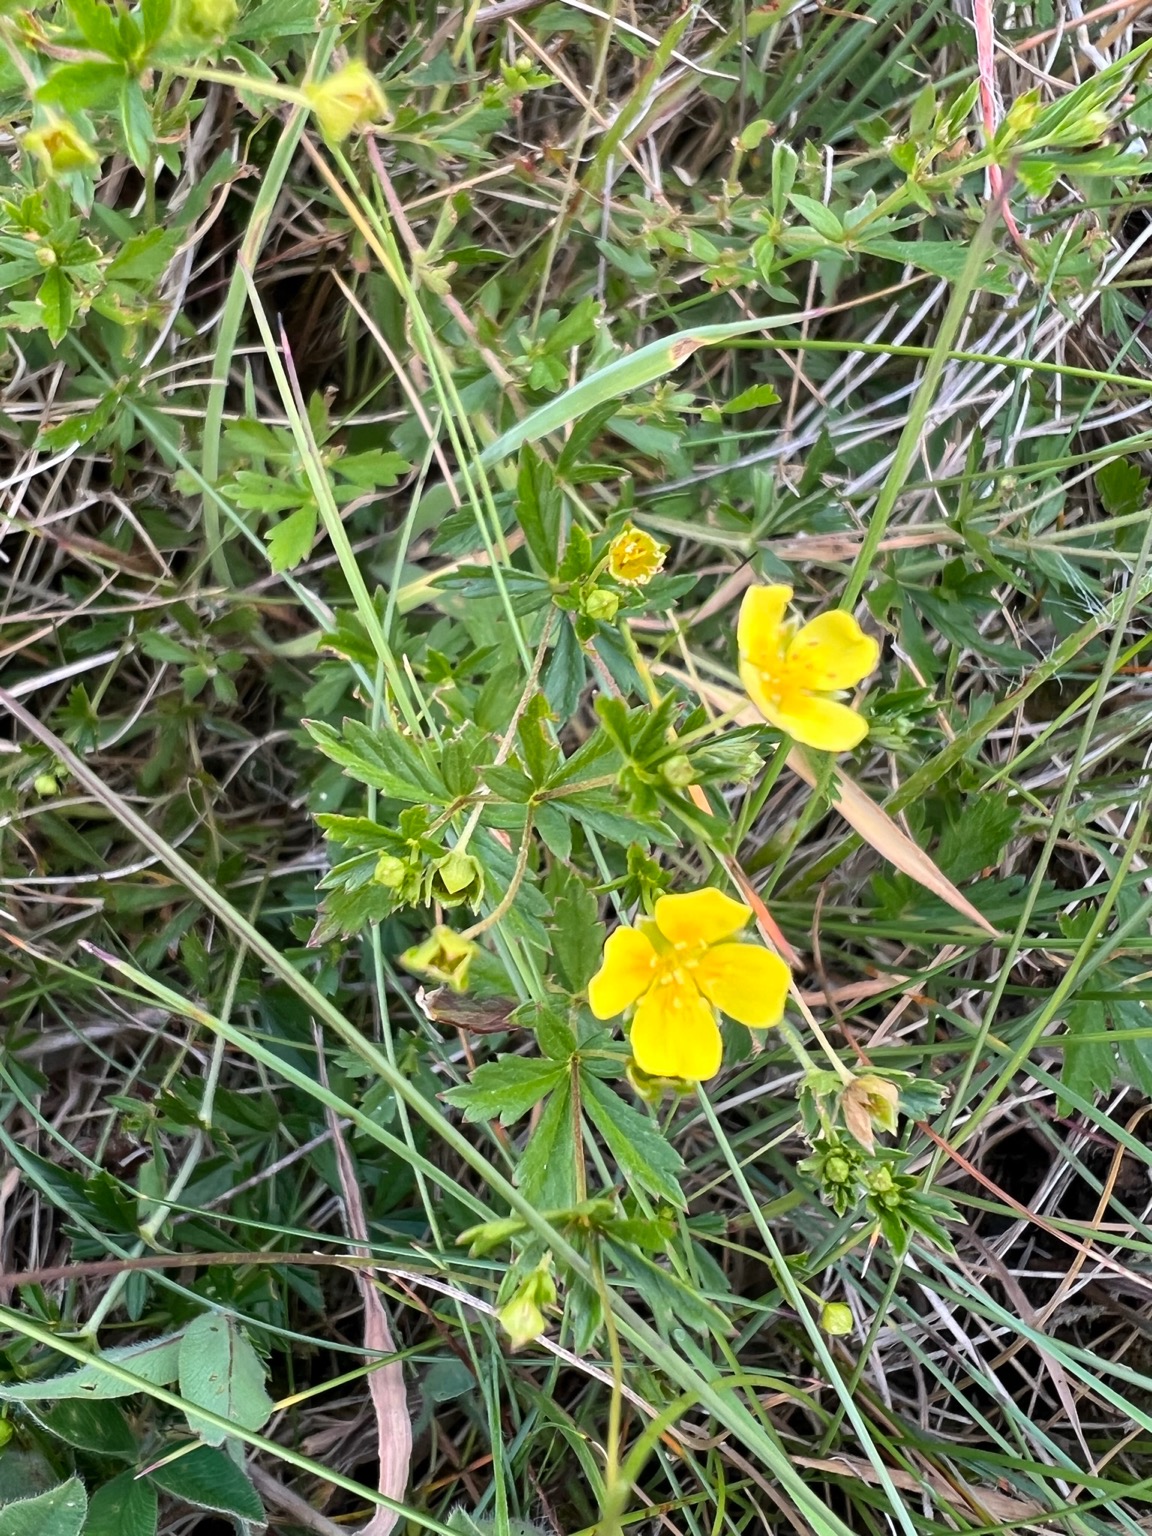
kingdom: Plantae
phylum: Tracheophyta
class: Magnoliopsida
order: Rosales
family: Rosaceae
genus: Potentilla
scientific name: Potentilla erecta
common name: Tormentil
